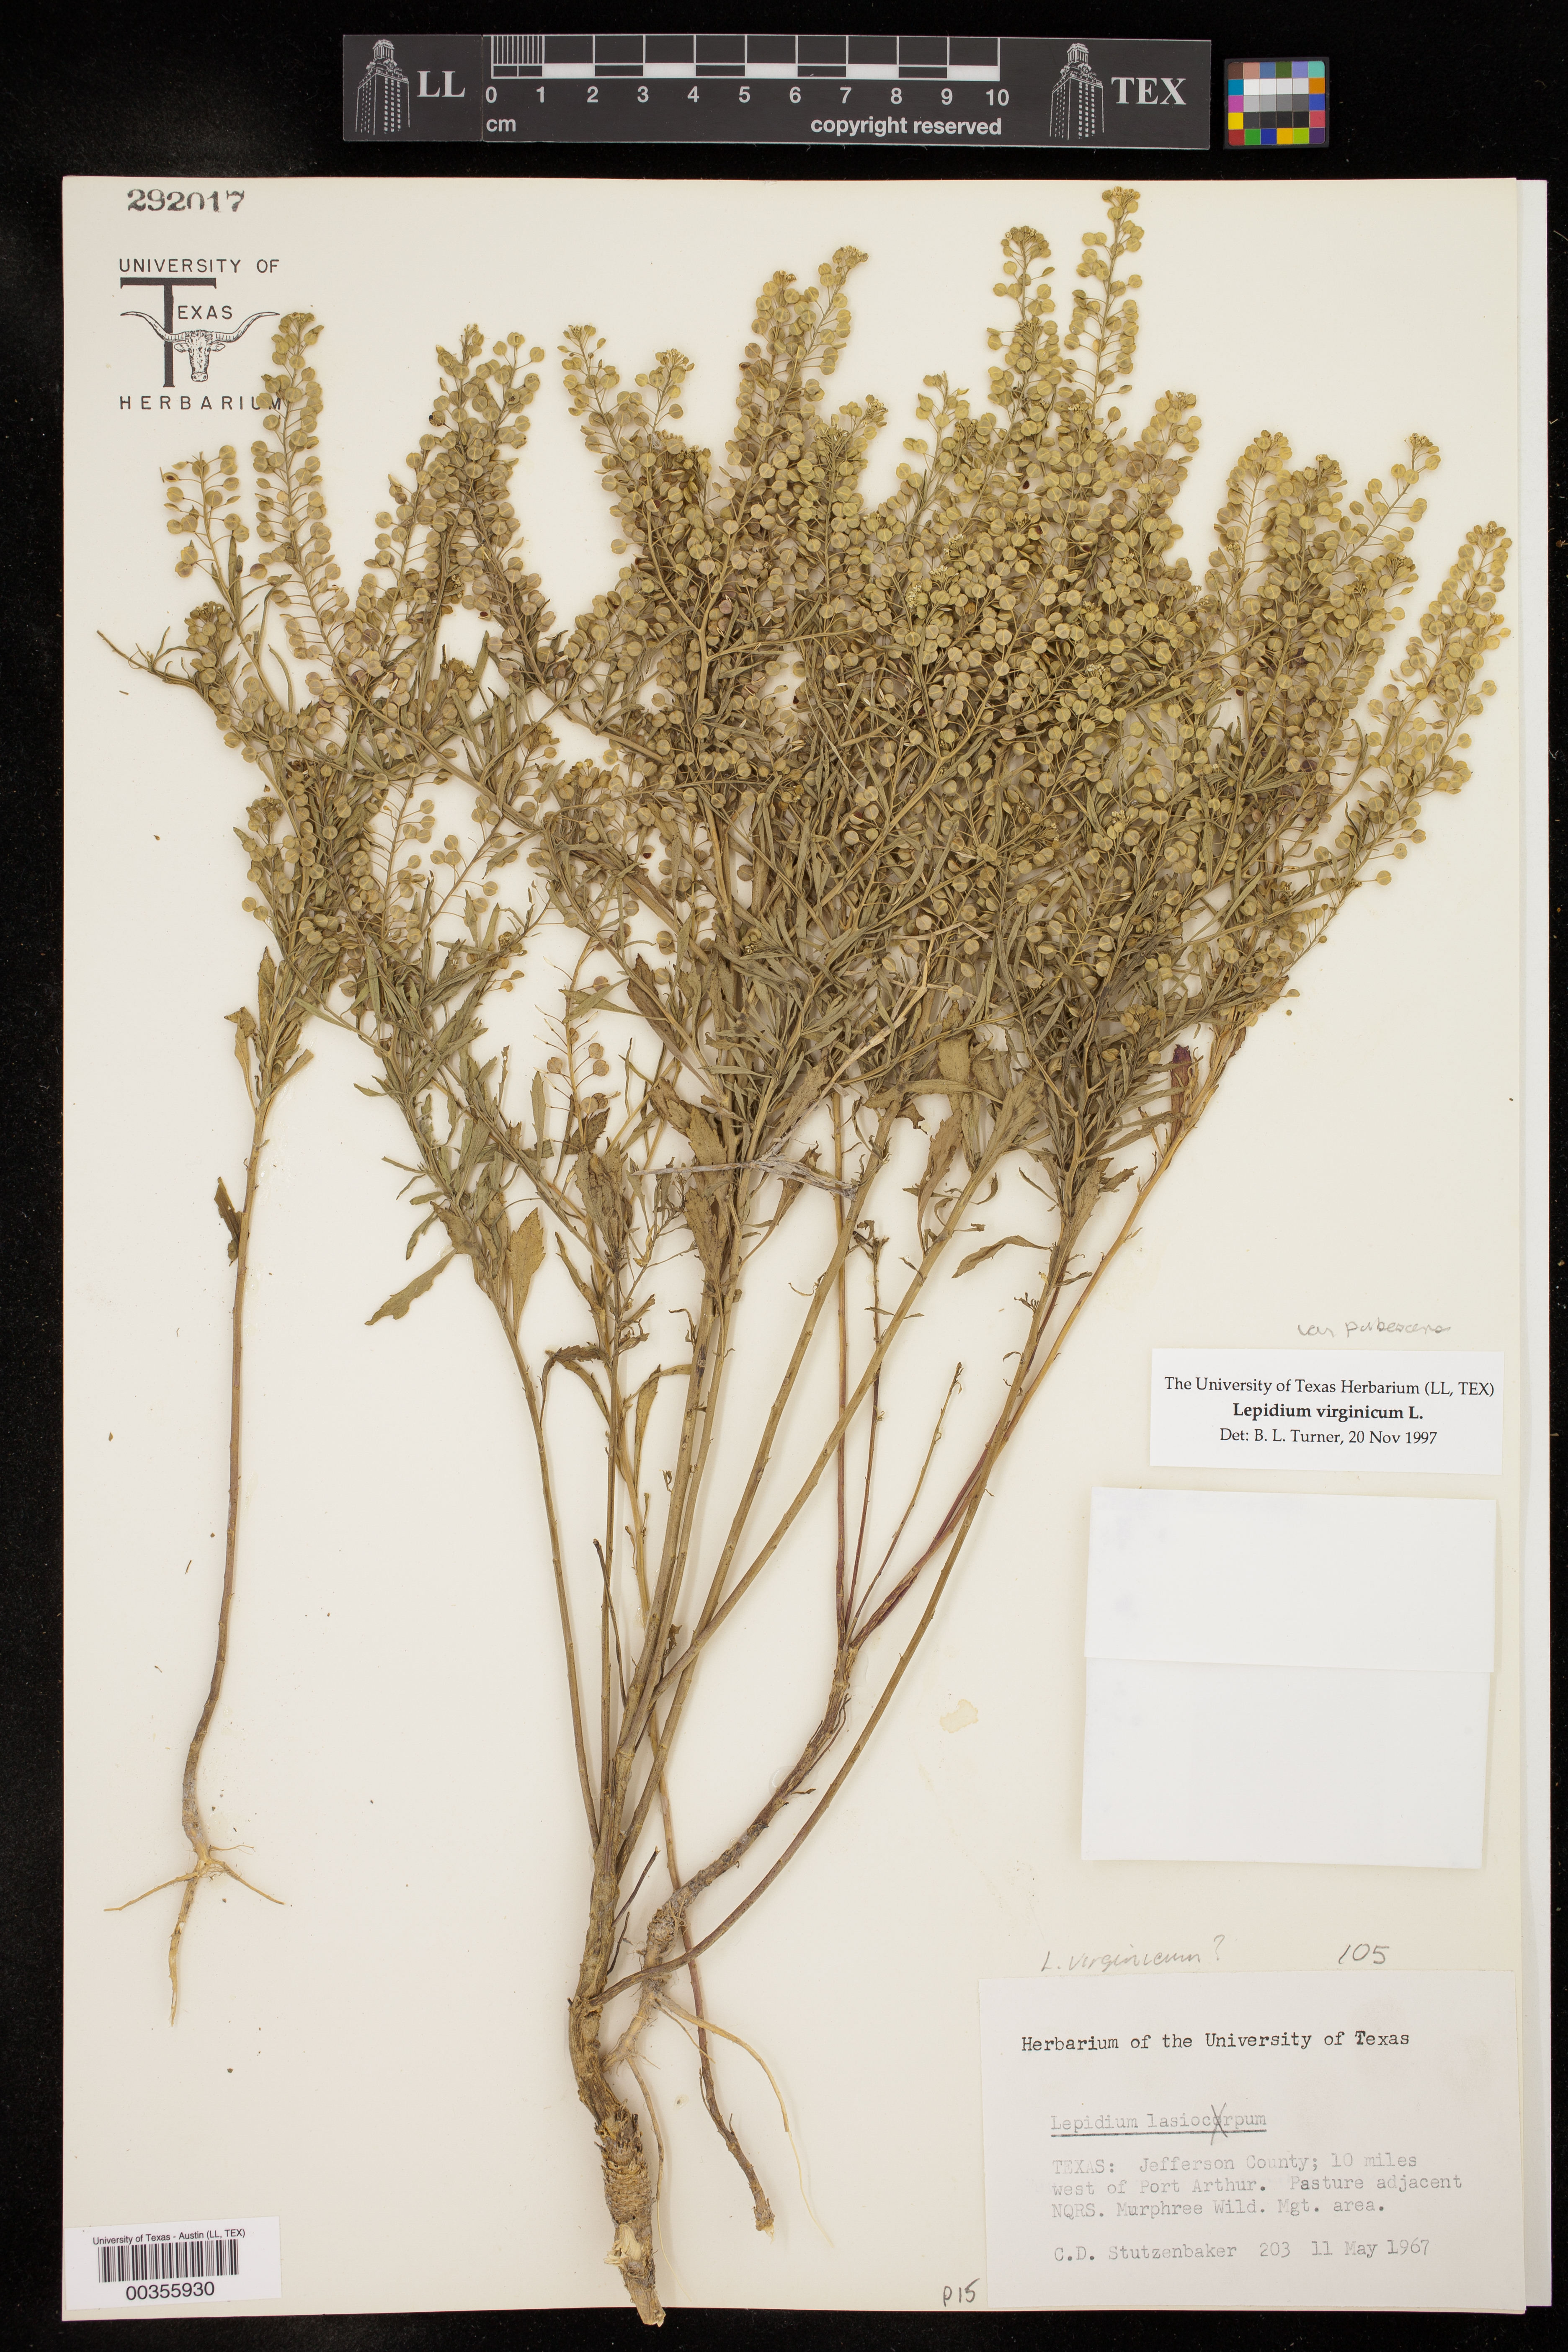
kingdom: Plantae
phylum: Tracheophyta
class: Magnoliopsida
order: Brassicales
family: Brassicaceae
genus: Lepidium
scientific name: Lepidium virginicum
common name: Least pepperwort
